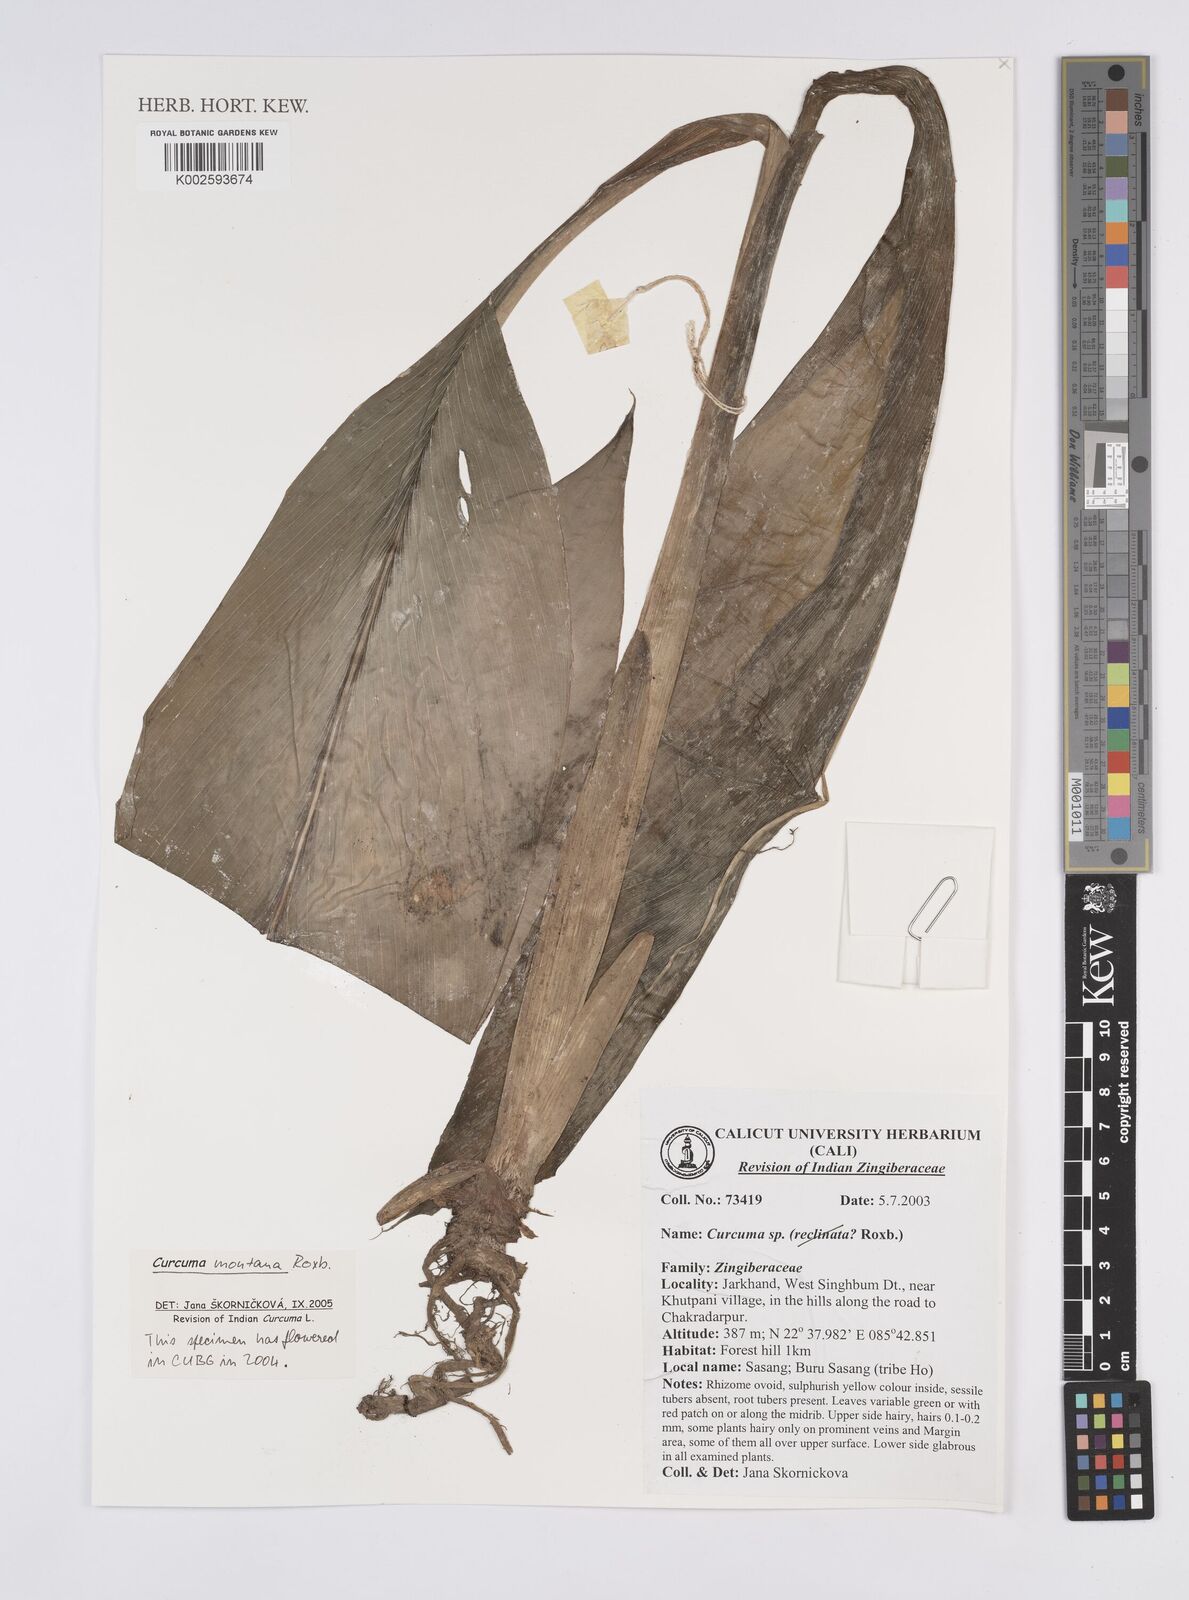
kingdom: Plantae
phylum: Tracheophyta
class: Liliopsida
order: Zingiberales
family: Zingiberaceae
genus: Curcuma
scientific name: Curcuma montana
